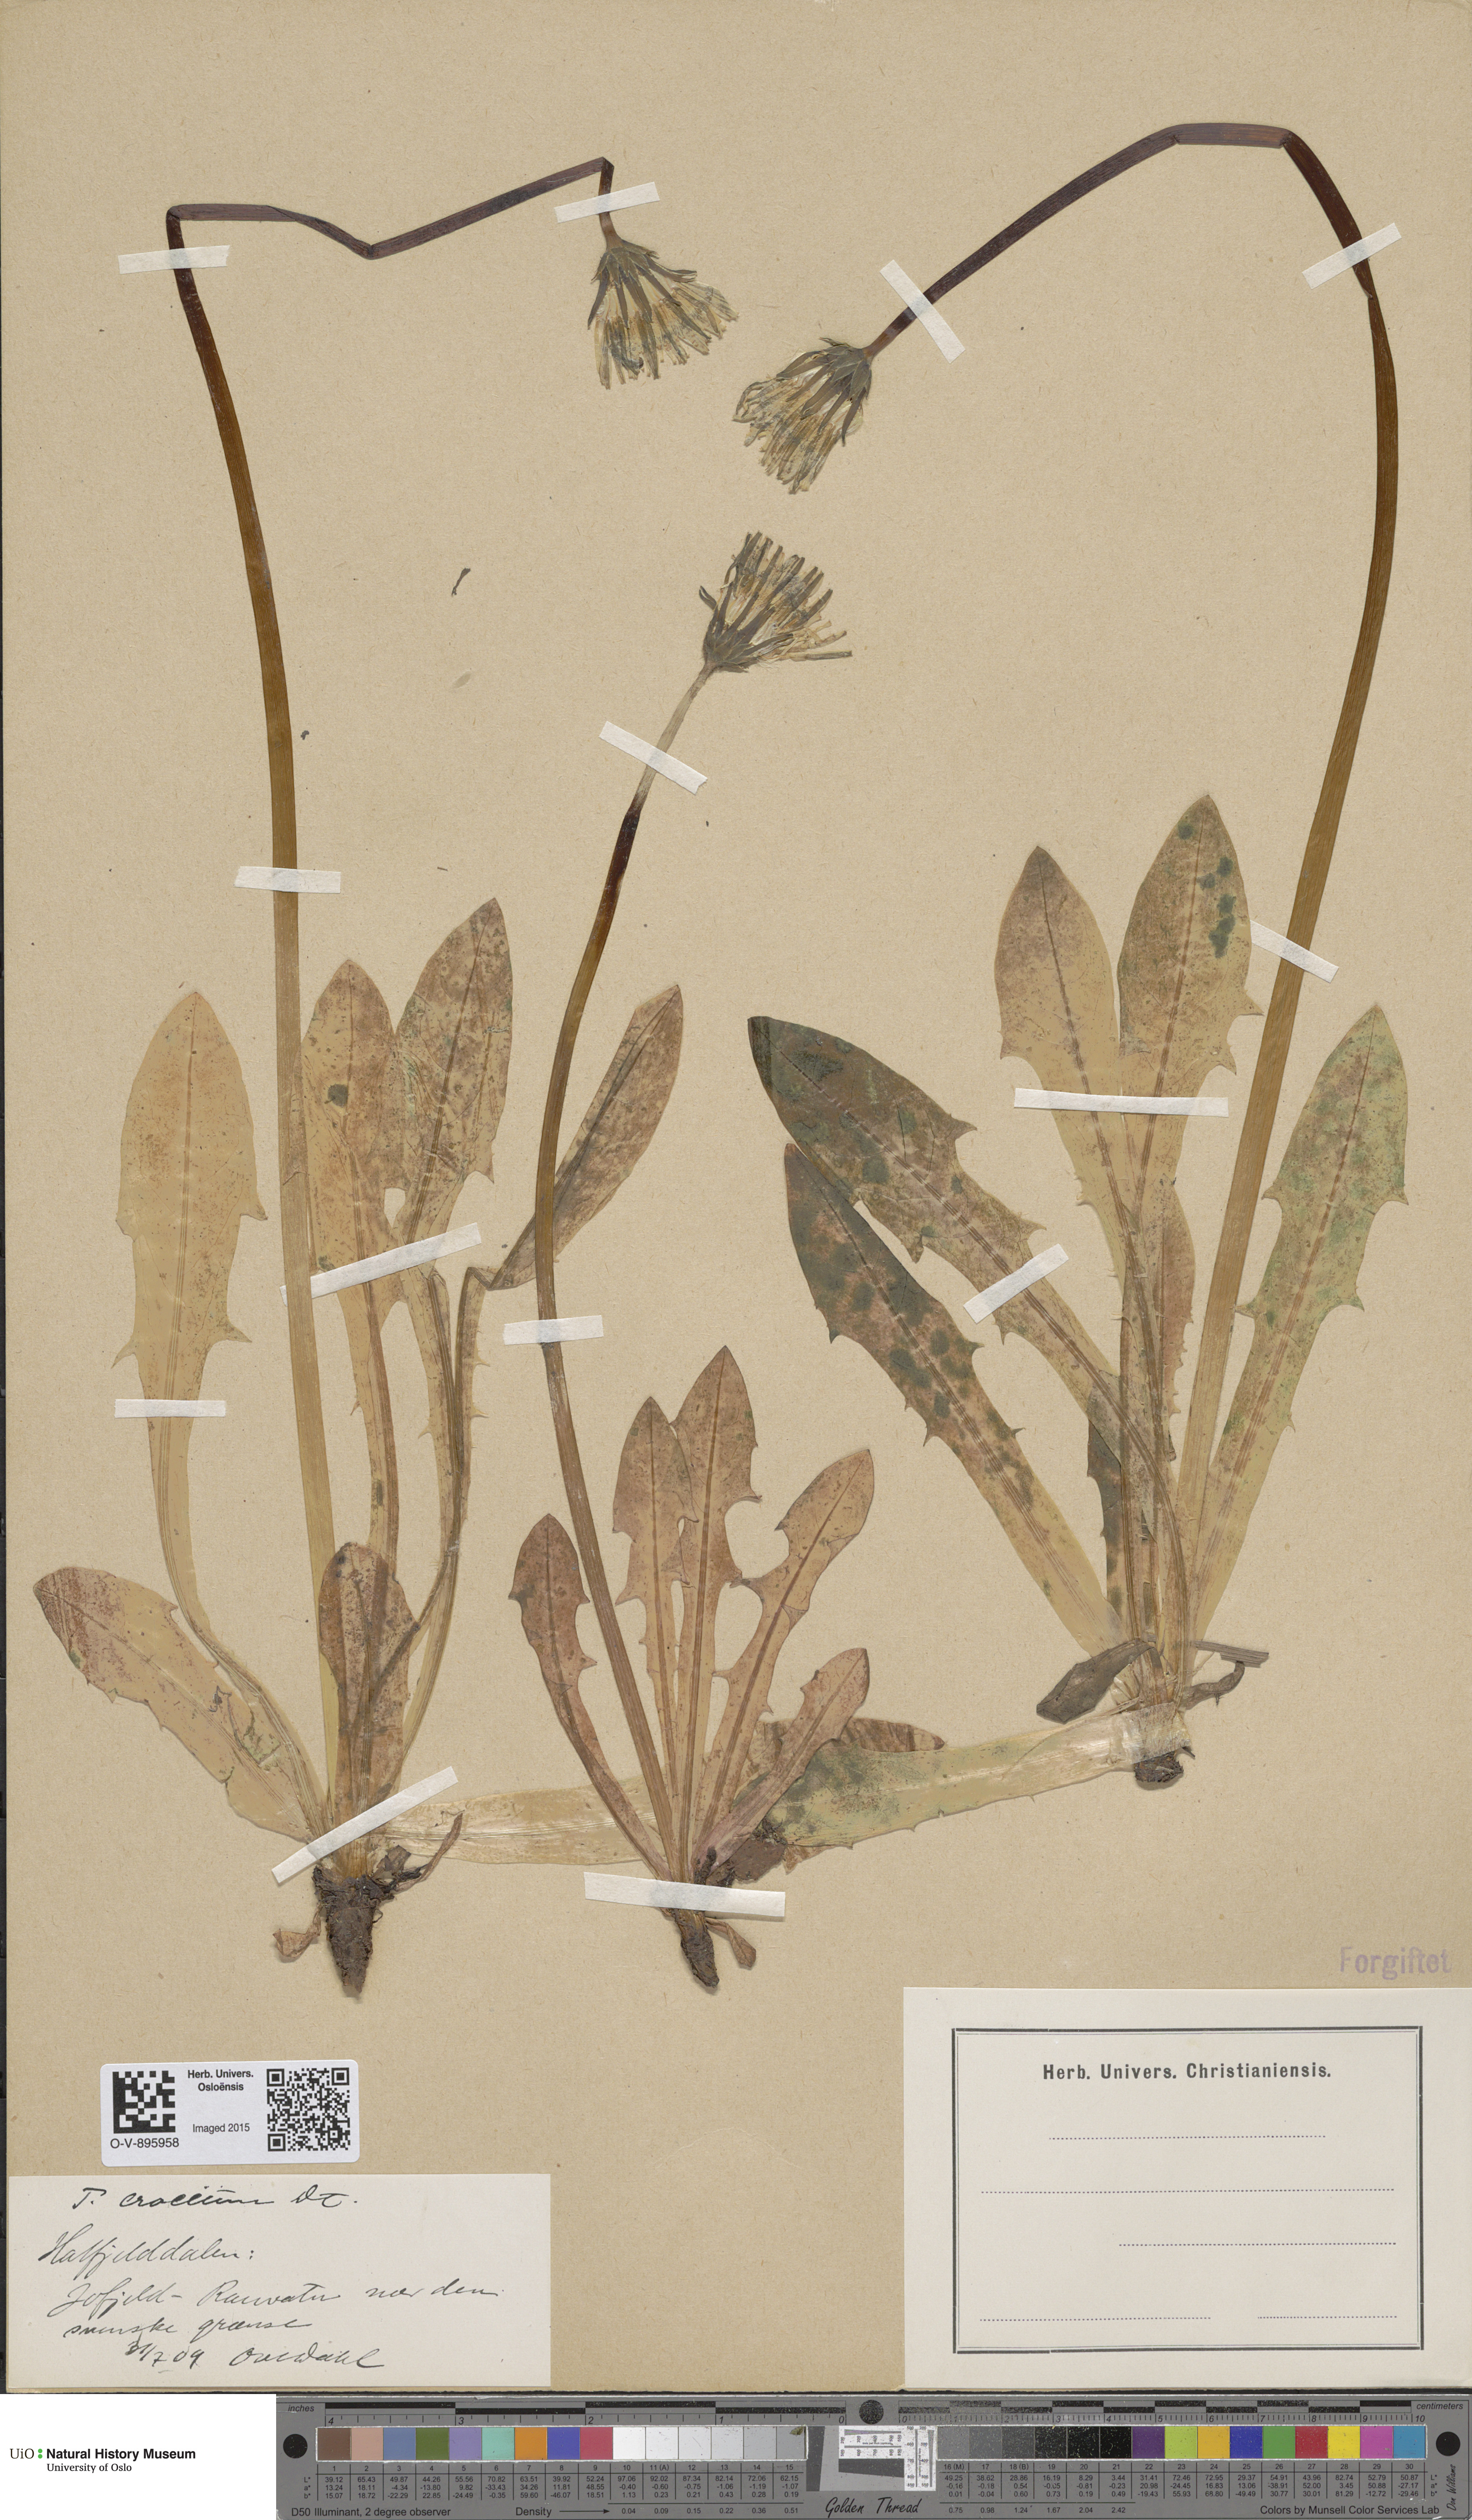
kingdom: Plantae
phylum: Tracheophyta
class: Magnoliopsida
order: Asterales
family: Asteraceae
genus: Taraxacum
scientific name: Taraxacum croceum
